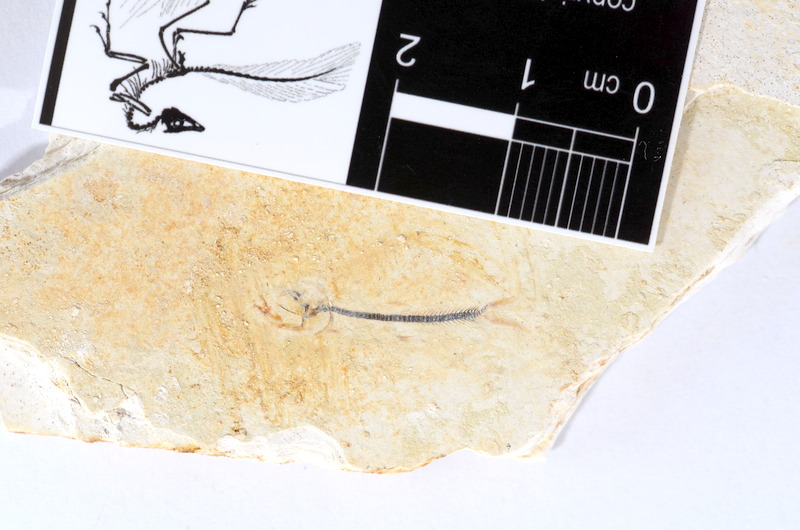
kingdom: Animalia
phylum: Chordata
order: Salmoniformes
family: Orthogonikleithridae
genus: Orthogonikleithrus
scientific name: Orthogonikleithrus hoelli
